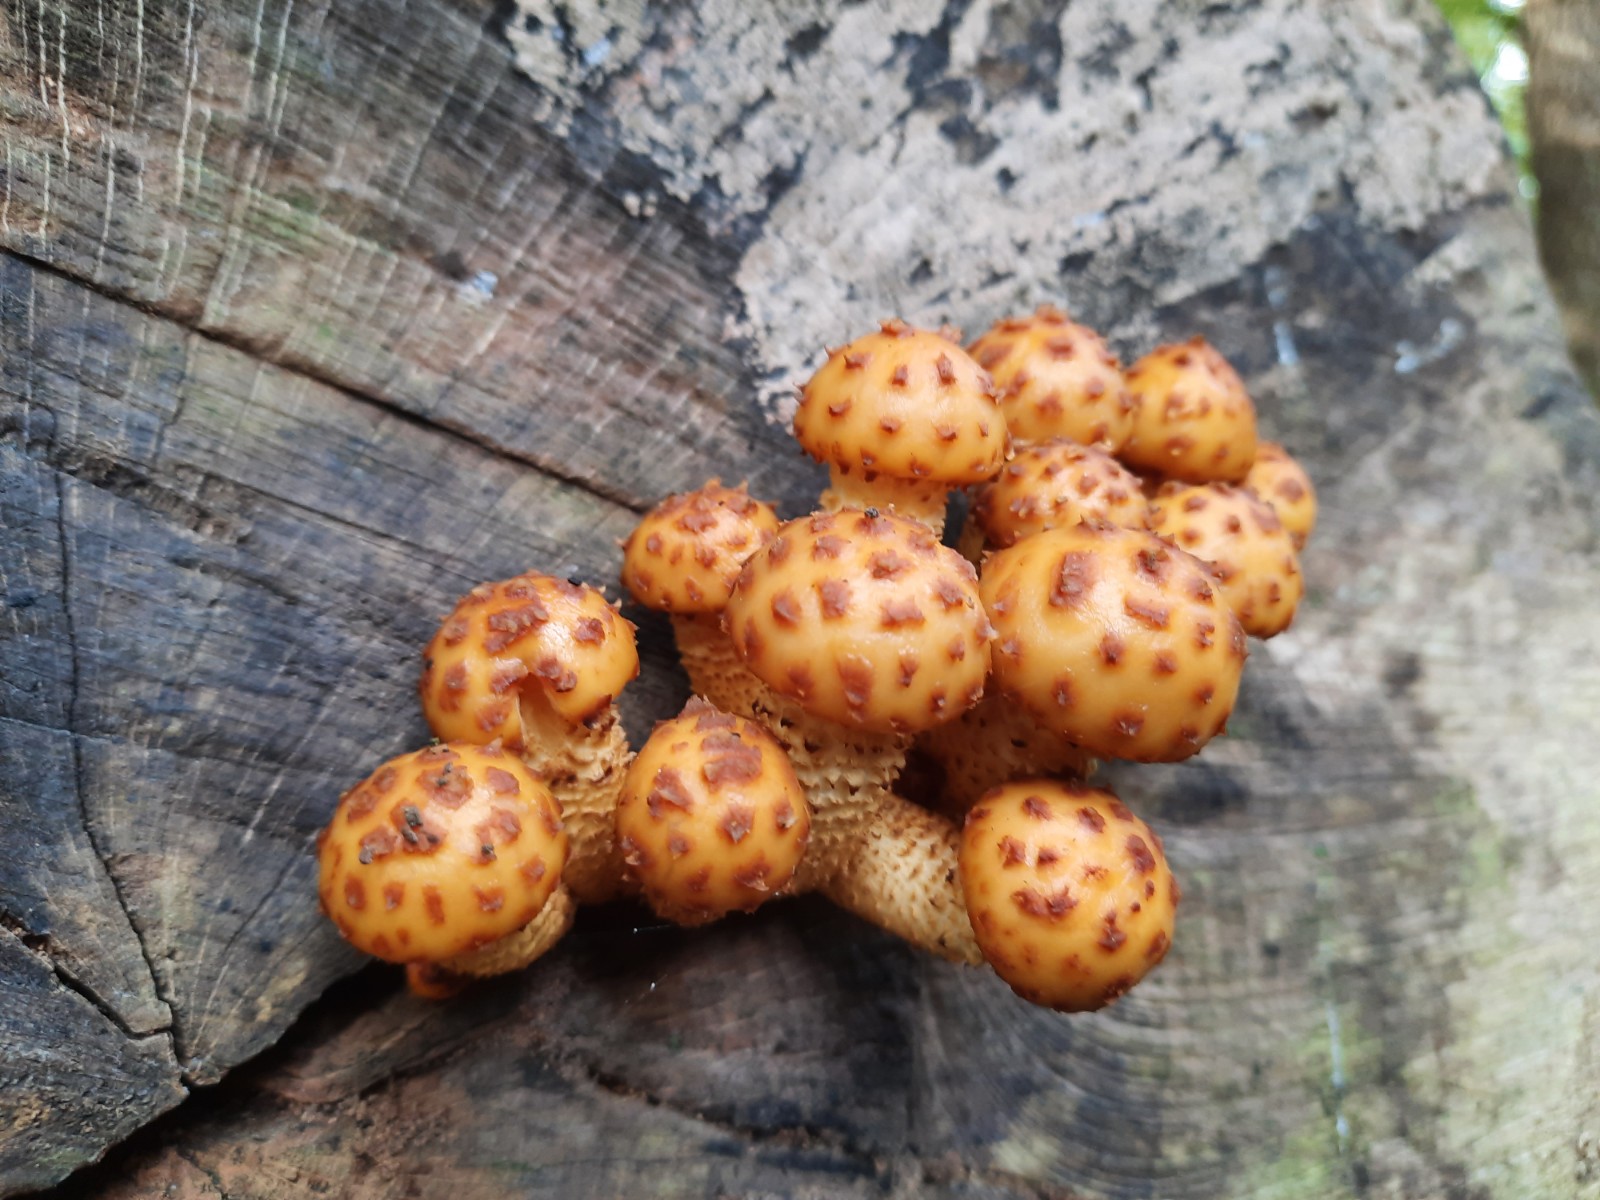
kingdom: Fungi
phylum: Basidiomycota
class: Agaricomycetes
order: Agaricales
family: Strophariaceae
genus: Pholiota
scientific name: Pholiota adiposa
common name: højtsiddende skælhat
